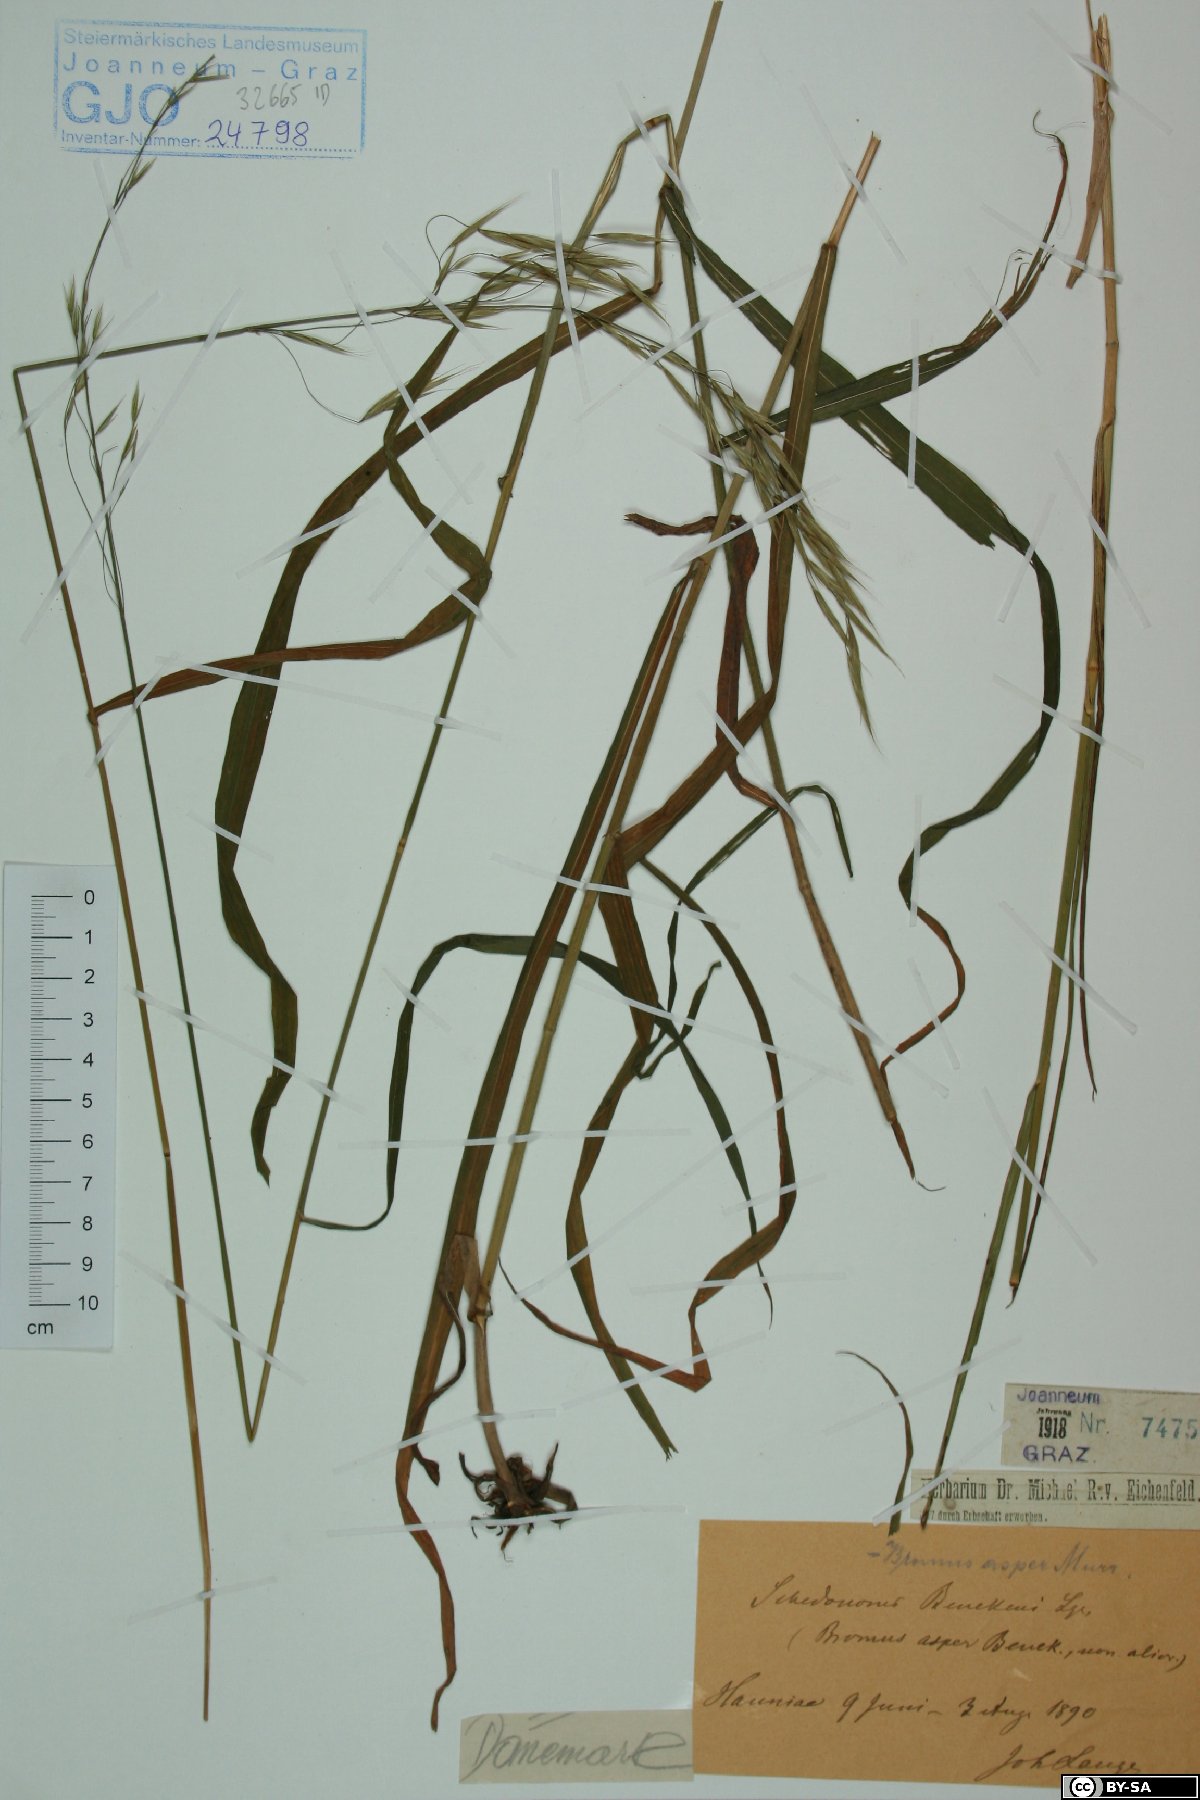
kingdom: Plantae
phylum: Tracheophyta
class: Liliopsida
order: Poales
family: Poaceae
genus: Bromus
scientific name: Bromus ramosus
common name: Hairy brome
